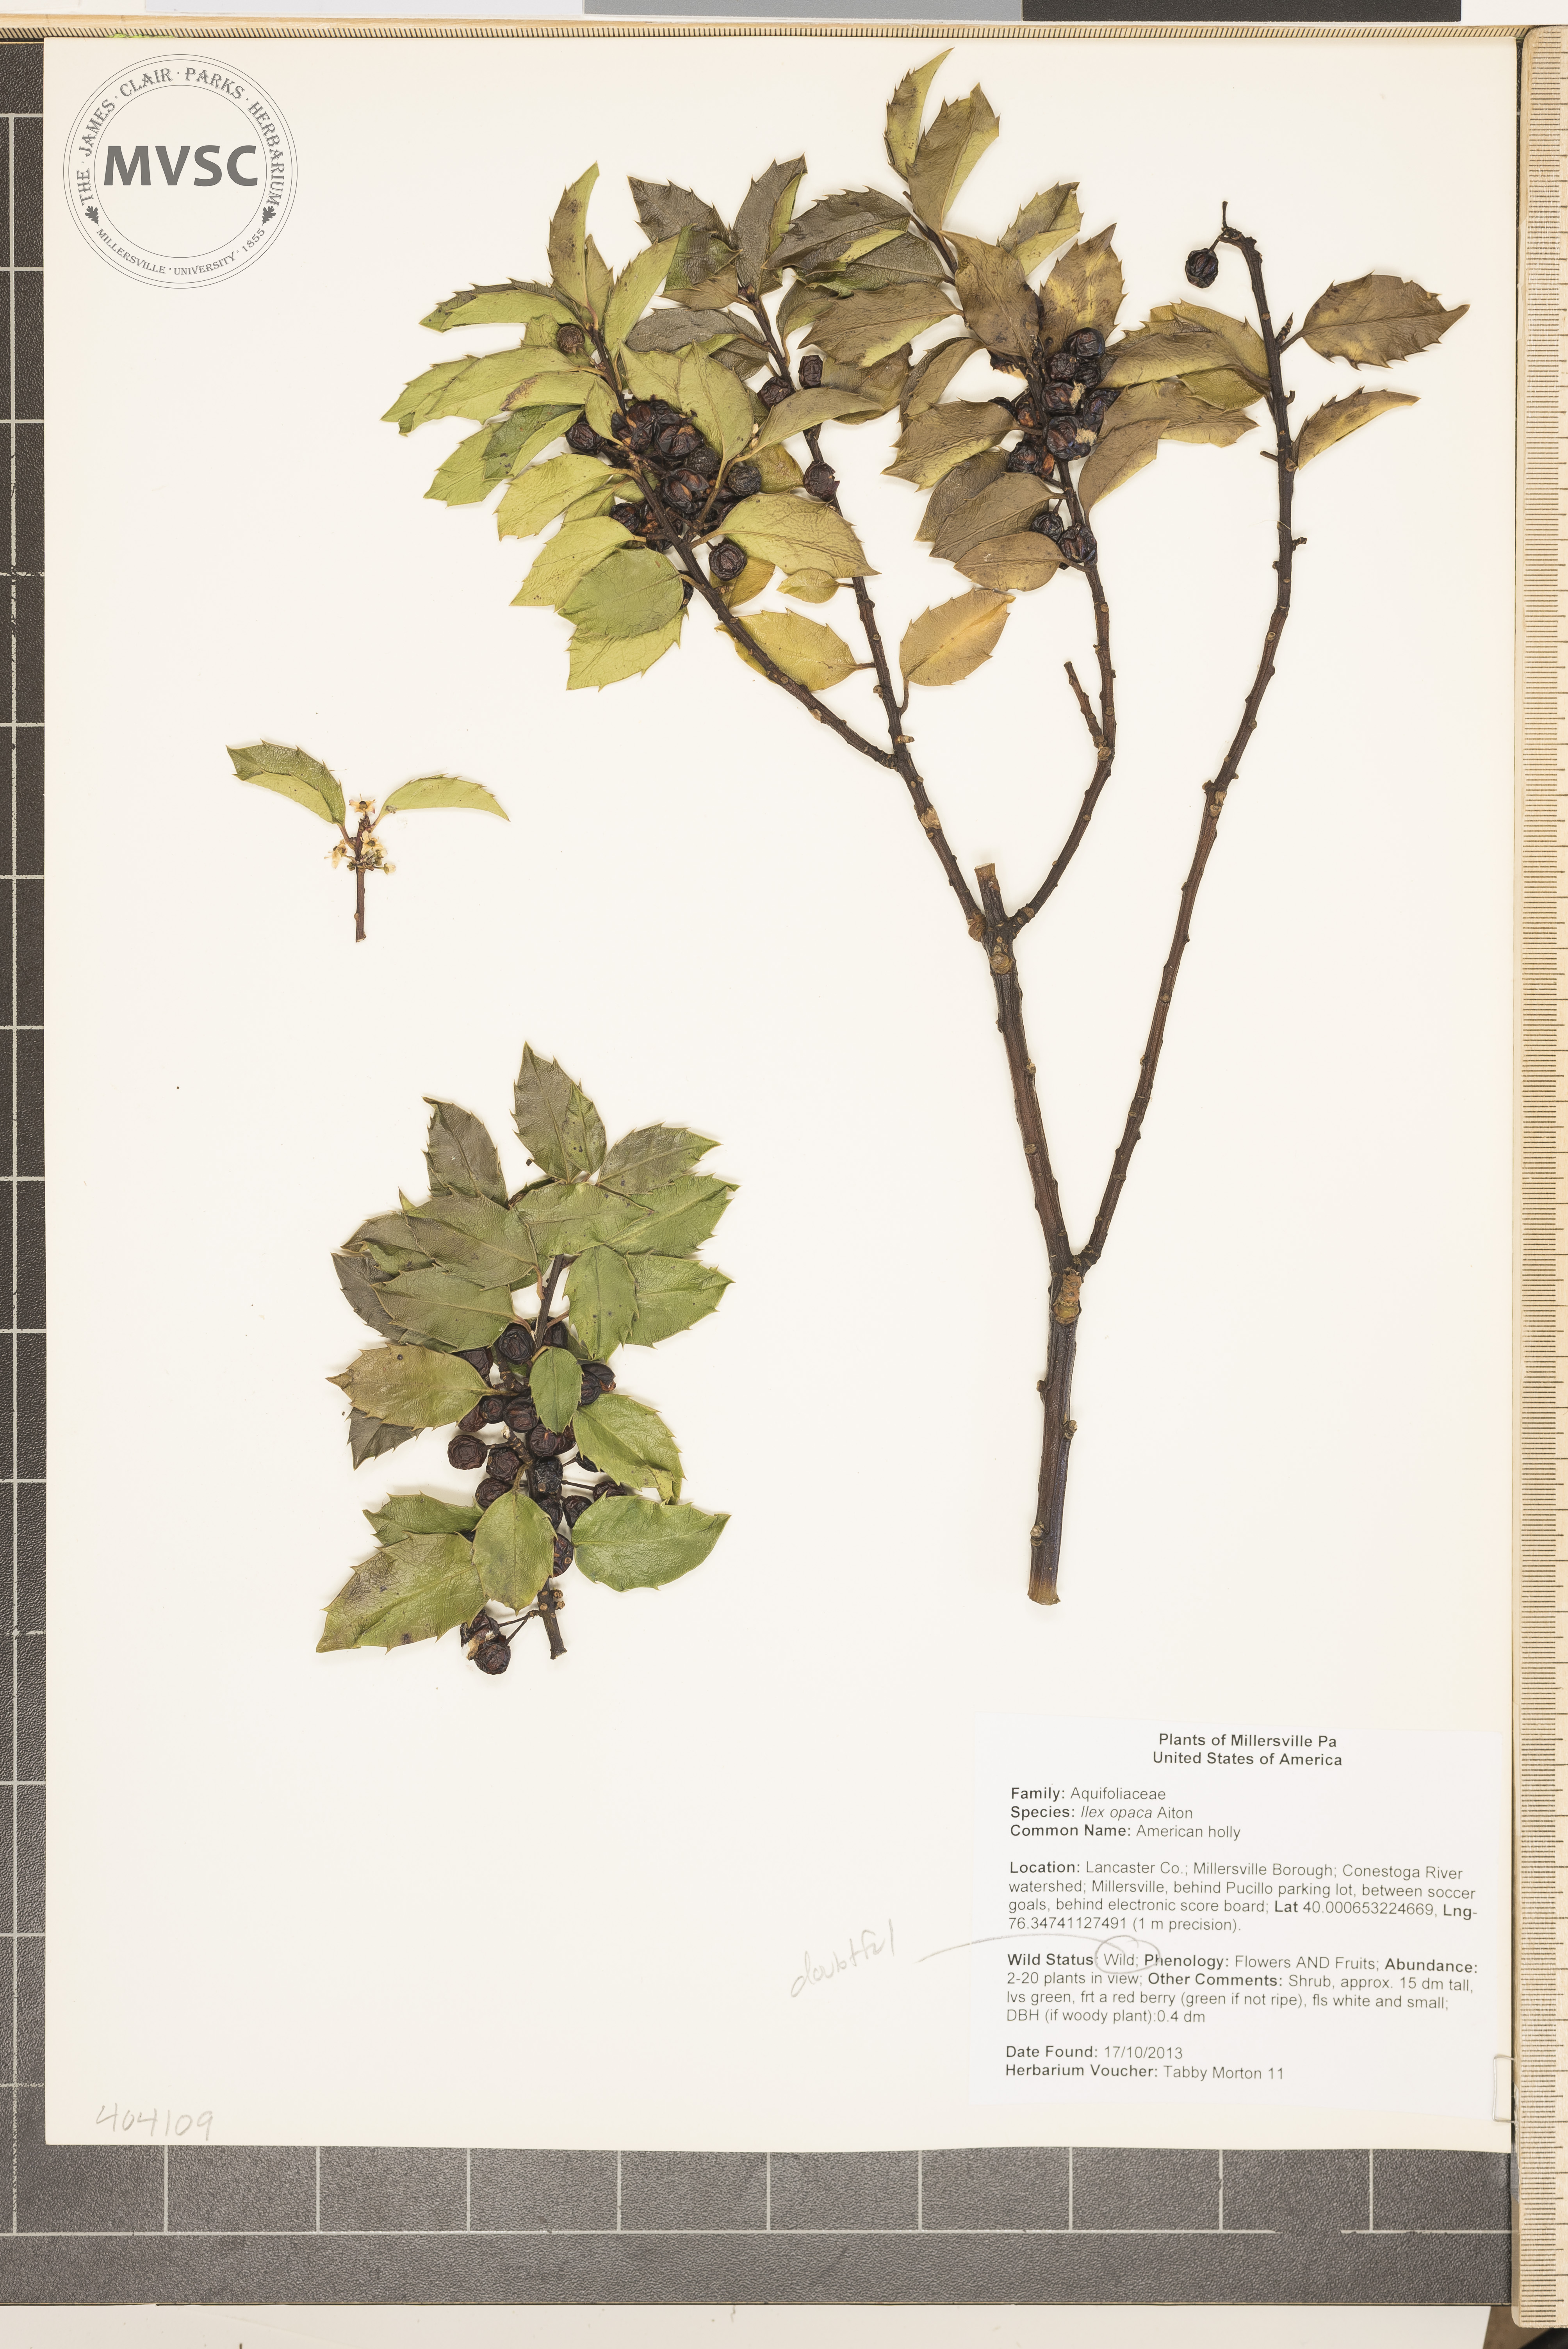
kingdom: Plantae
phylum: Tracheophyta
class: Magnoliopsida
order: Aquifoliales
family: Aquifoliaceae
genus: Ilex
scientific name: Ilex opaca
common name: American holly
